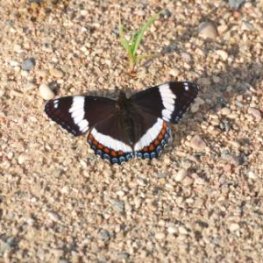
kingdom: Animalia
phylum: Arthropoda
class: Insecta
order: Lepidoptera
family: Nymphalidae
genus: Limenitis
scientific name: Limenitis arthemis
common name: Red-spotted Admiral
